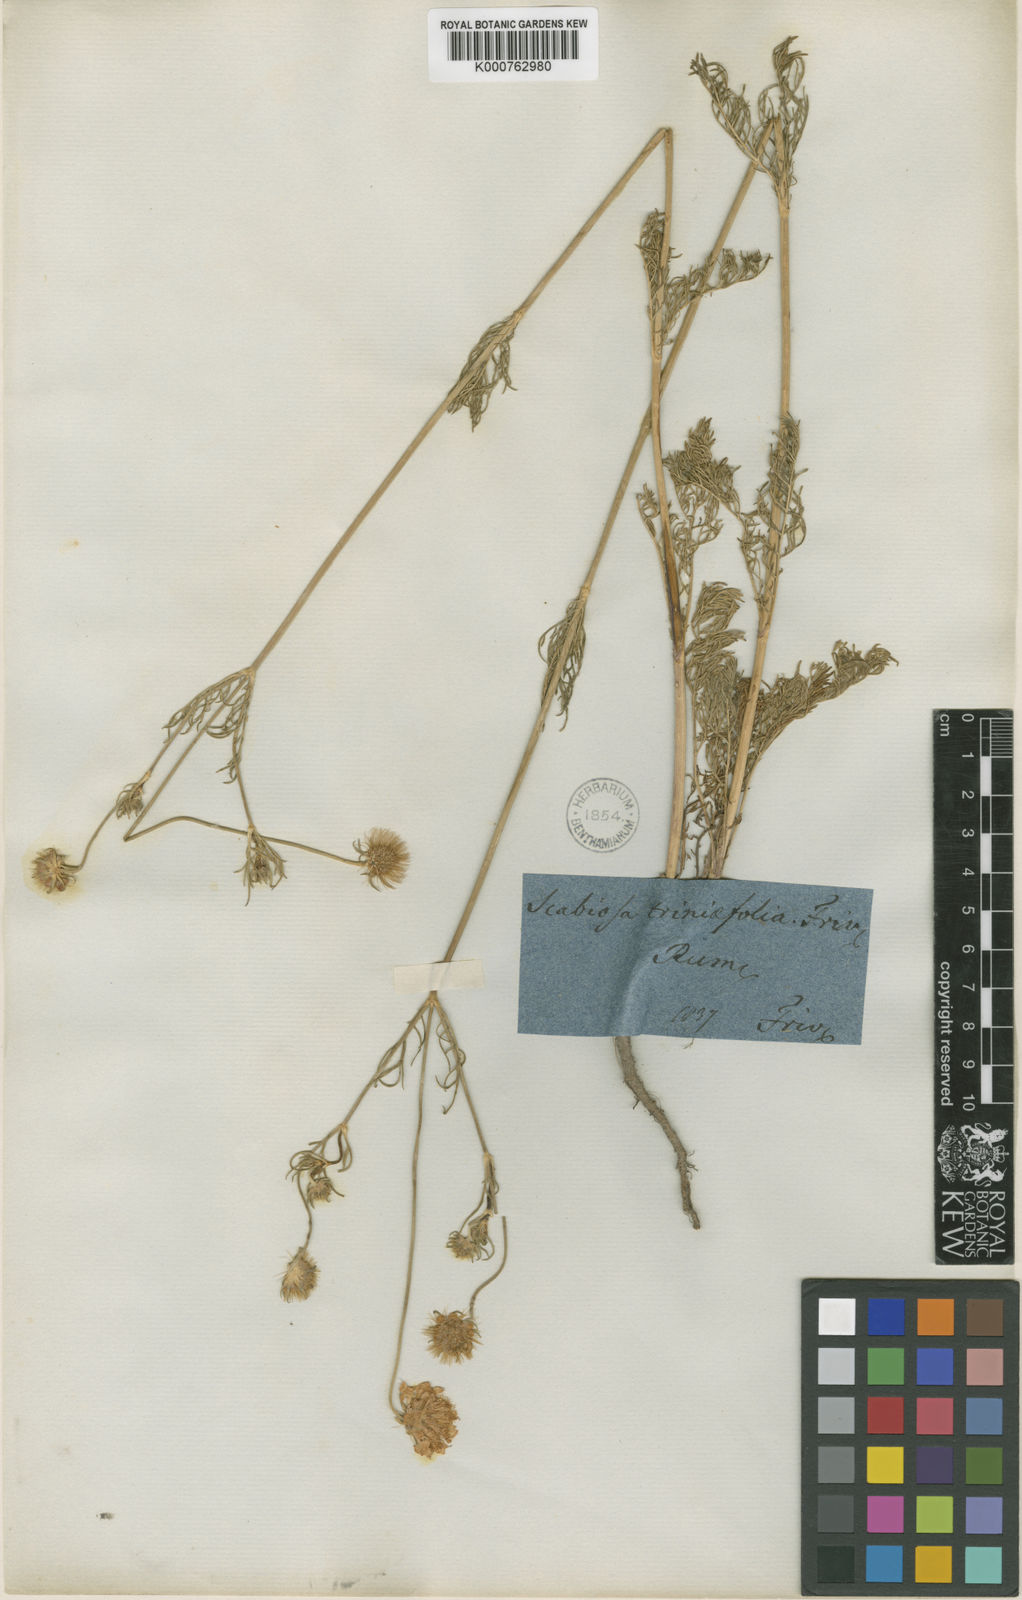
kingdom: Plantae
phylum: Tracheophyta
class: Magnoliopsida
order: Dipsacales
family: Caprifoliaceae
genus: Scabiosa
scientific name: Scabiosa triniifolia
